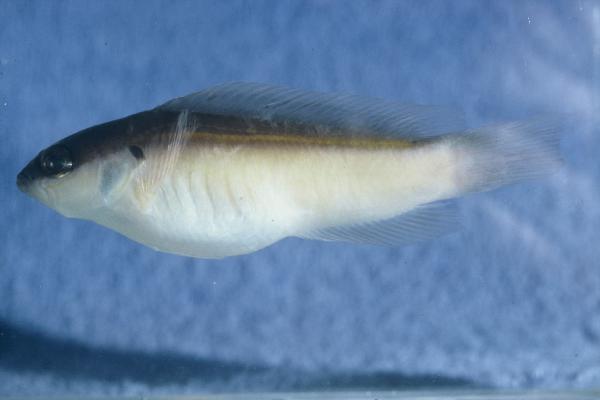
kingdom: Animalia
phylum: Chordata
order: Perciformes
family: Pseudochromidae
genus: Pseudochromis
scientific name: Pseudochromis melas
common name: Dark dottyback
